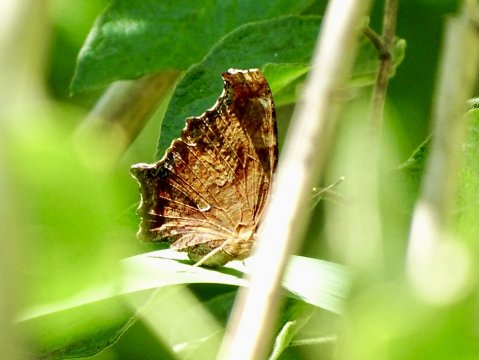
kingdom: Animalia
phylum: Arthropoda
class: Insecta
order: Lepidoptera
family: Nymphalidae
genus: Polygonia
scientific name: Polygonia comma
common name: Eastern Comma
